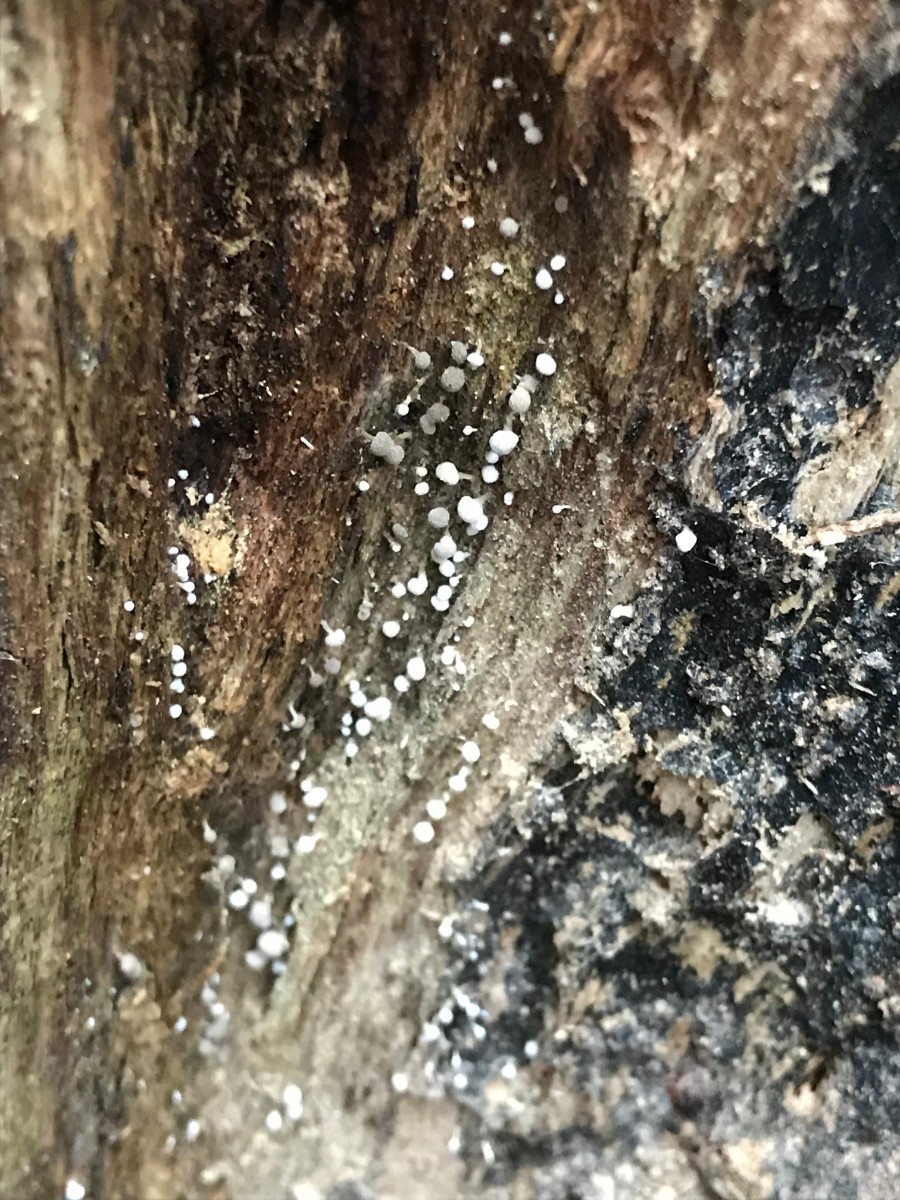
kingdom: Fungi
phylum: Basidiomycota
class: Atractiellomycetes
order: Atractiellales
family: Phleogenaceae
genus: Phleogena
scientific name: Phleogena faginea
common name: pudderkølle
